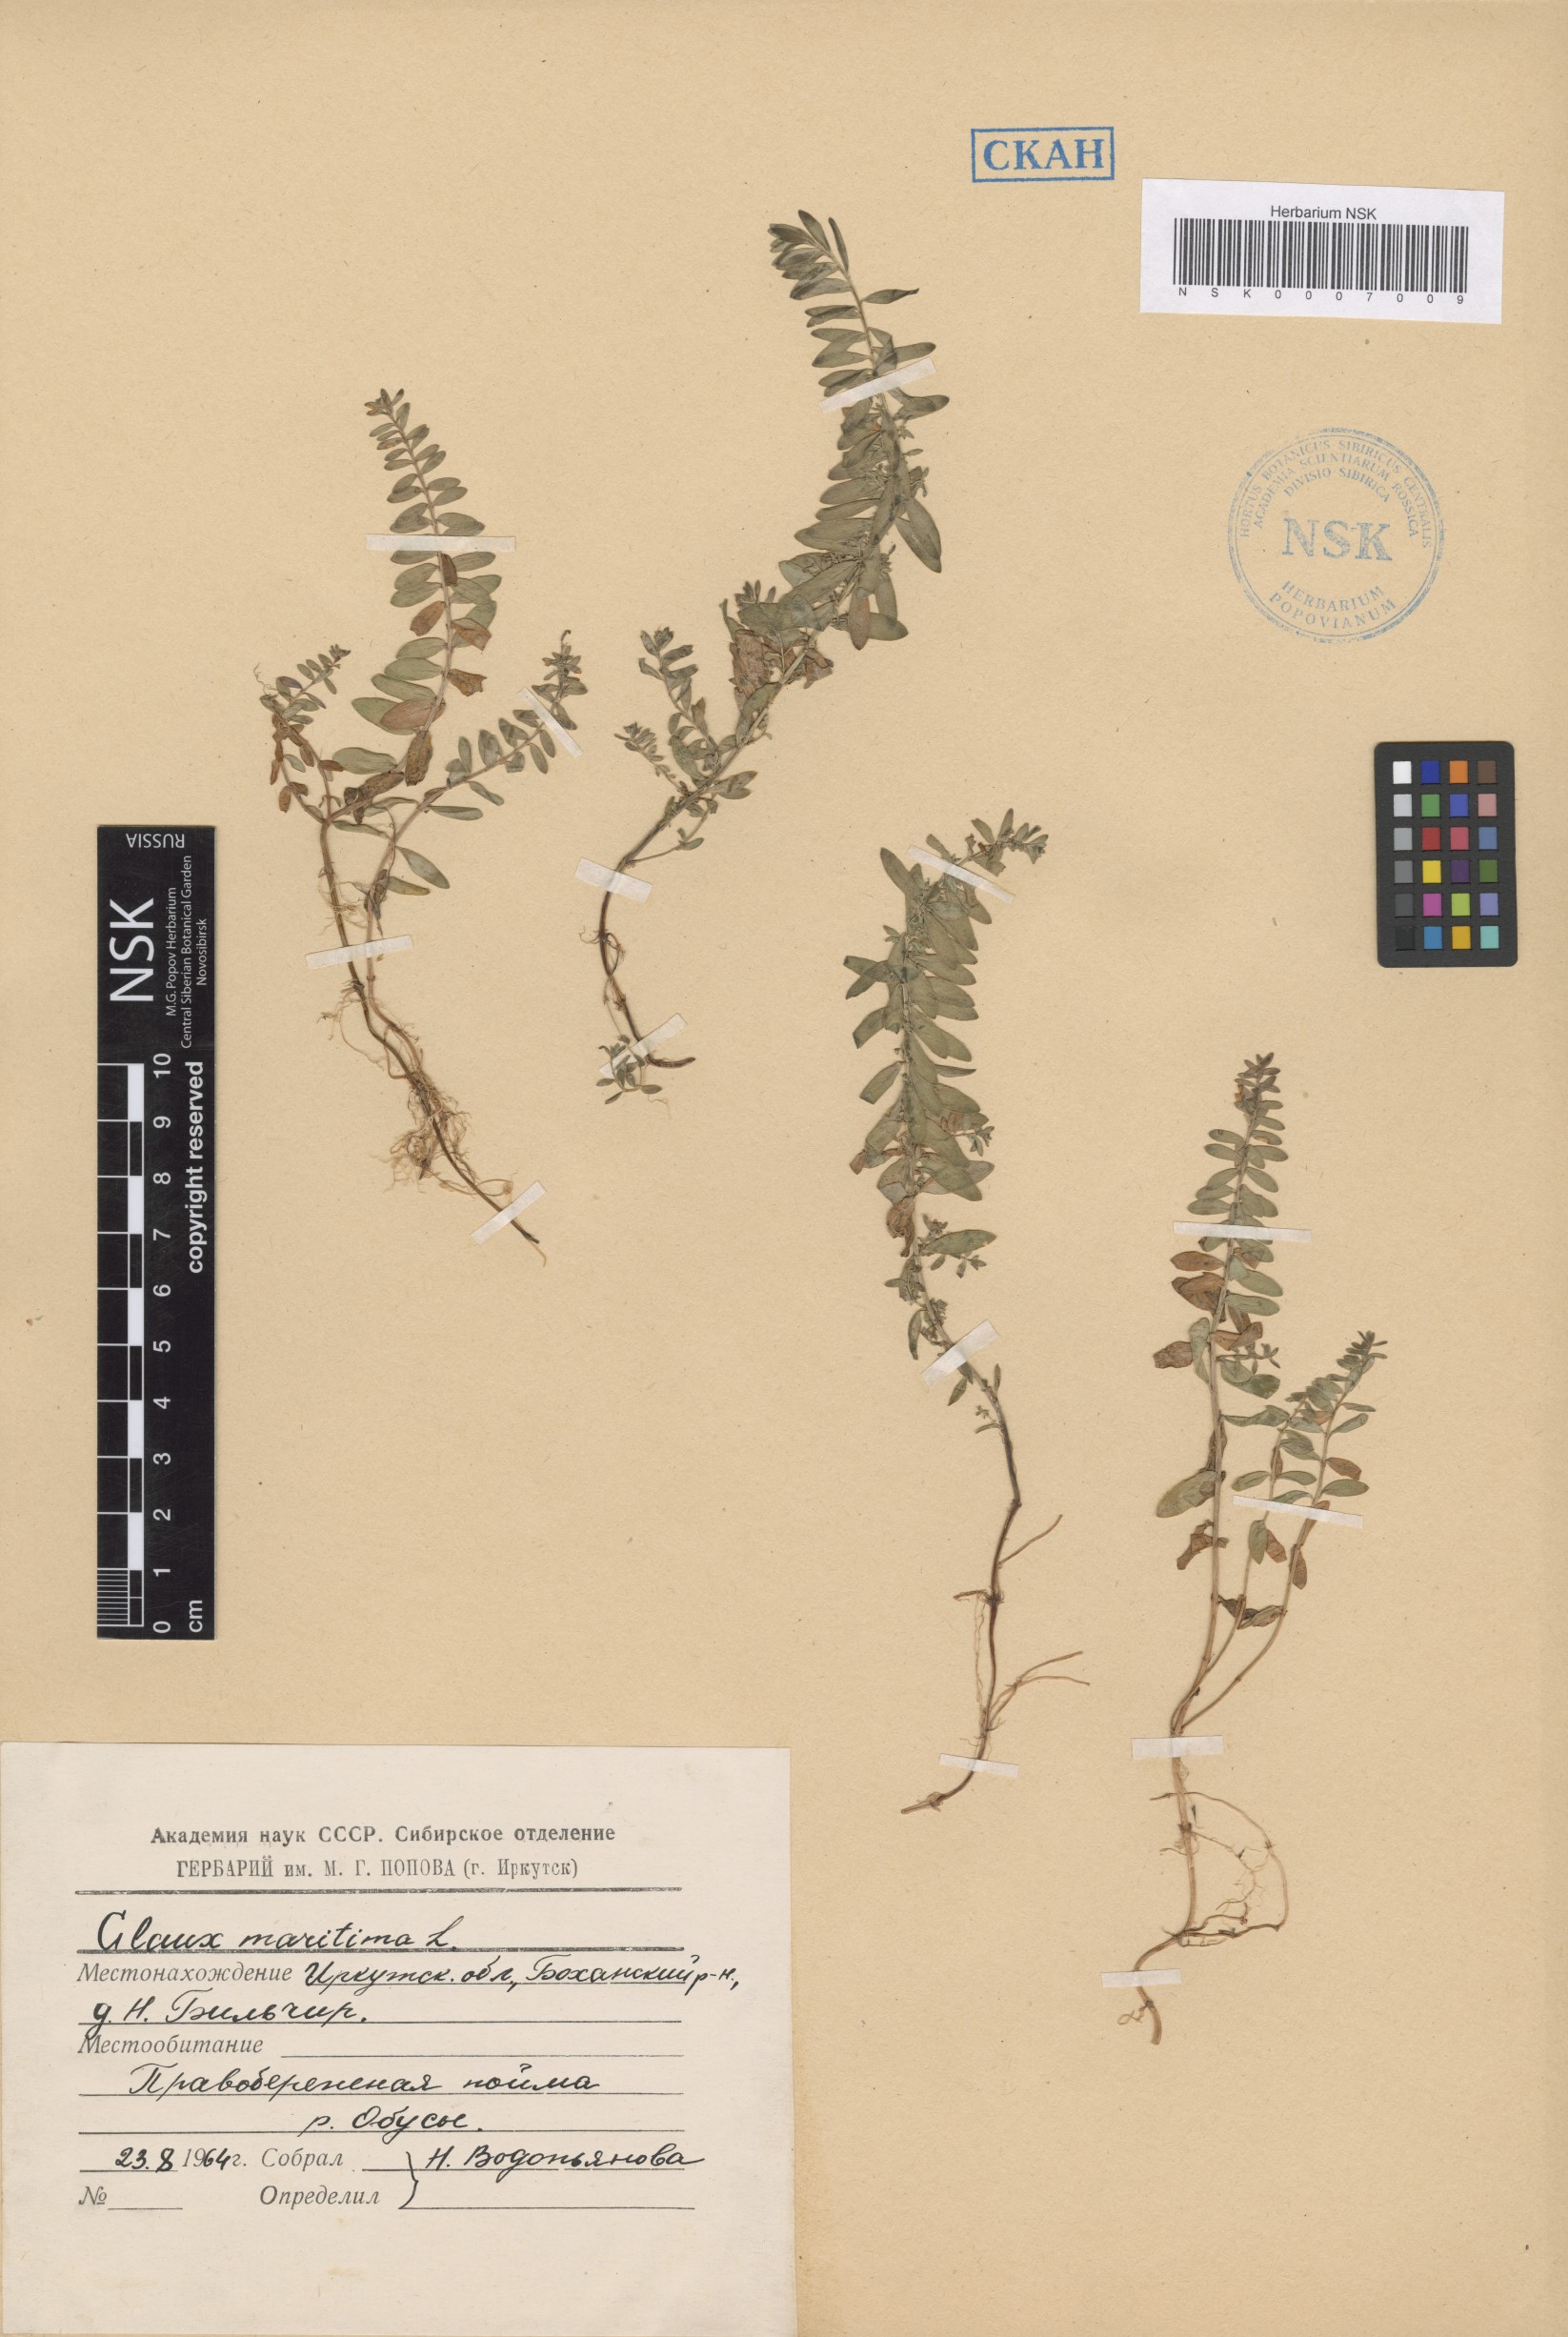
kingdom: Plantae
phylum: Tracheophyta
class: Magnoliopsida
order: Ericales
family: Primulaceae
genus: Lysimachia
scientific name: Lysimachia maritima
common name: Sea milkwort
